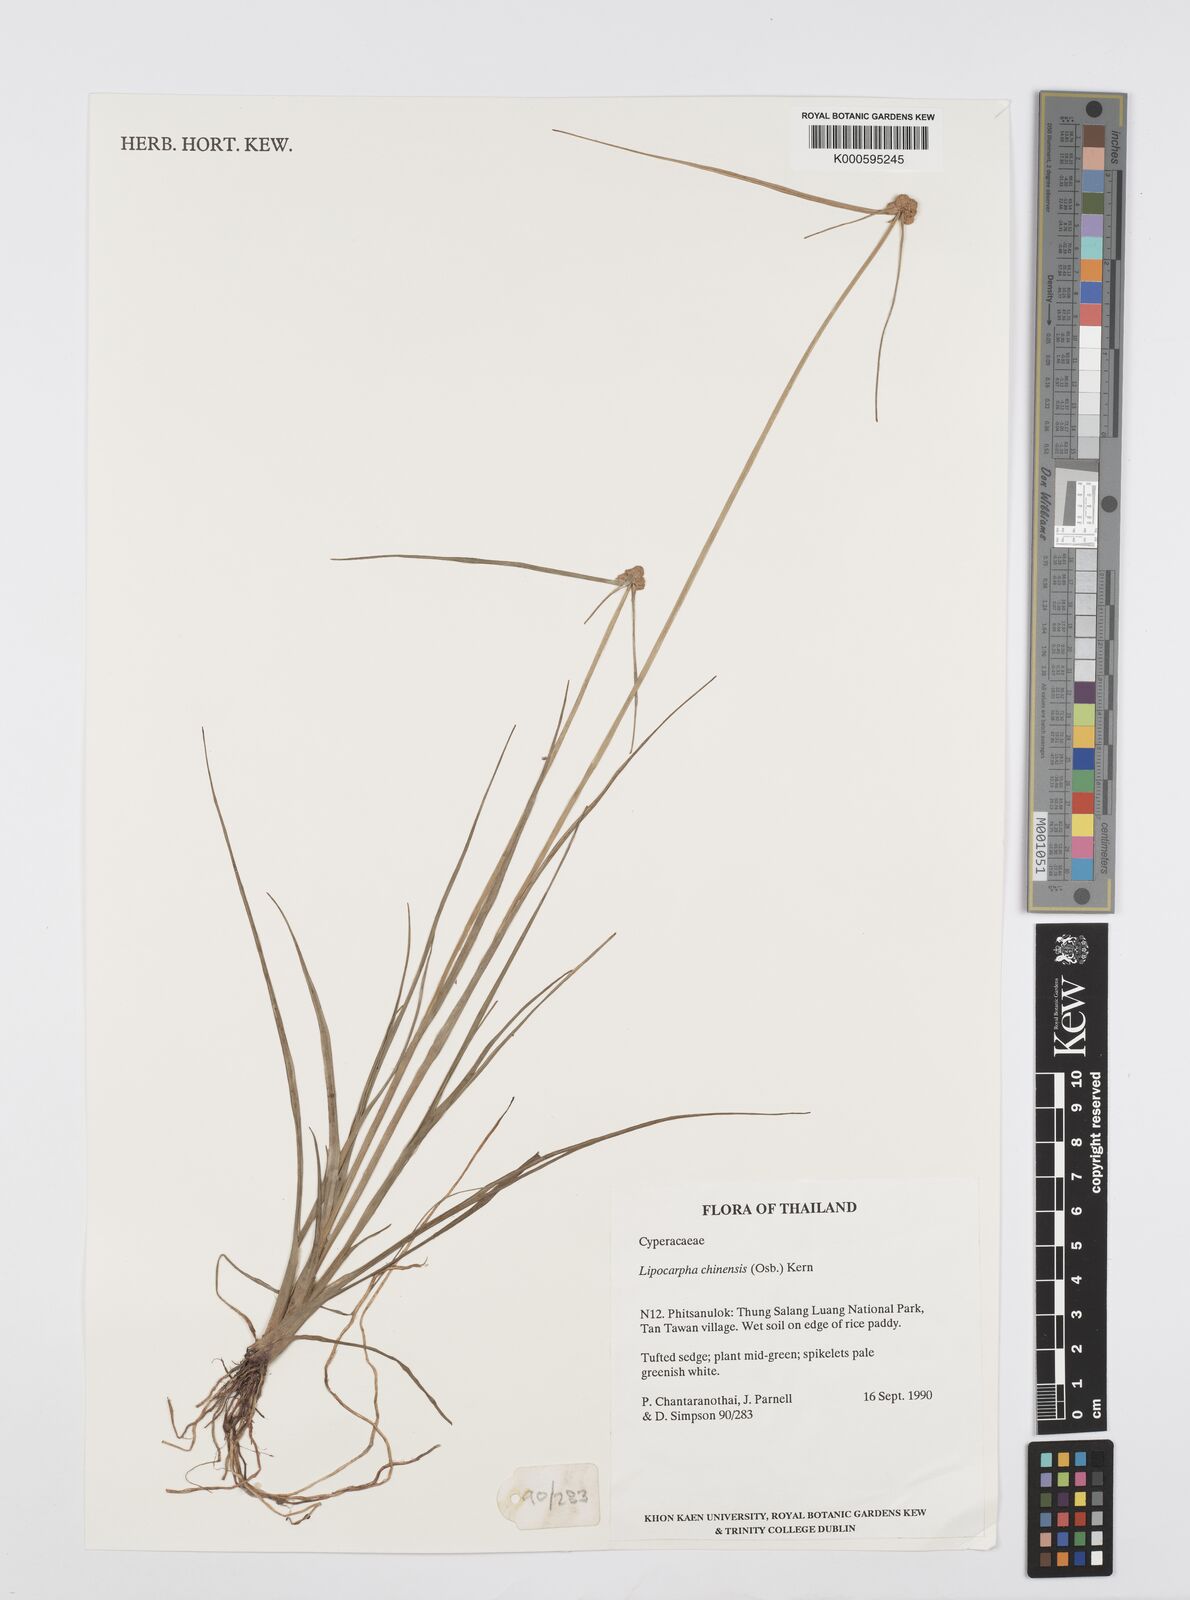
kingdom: Plantae
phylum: Tracheophyta
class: Liliopsida
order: Poales
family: Cyperaceae
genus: Cyperus
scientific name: Cyperus albescens
